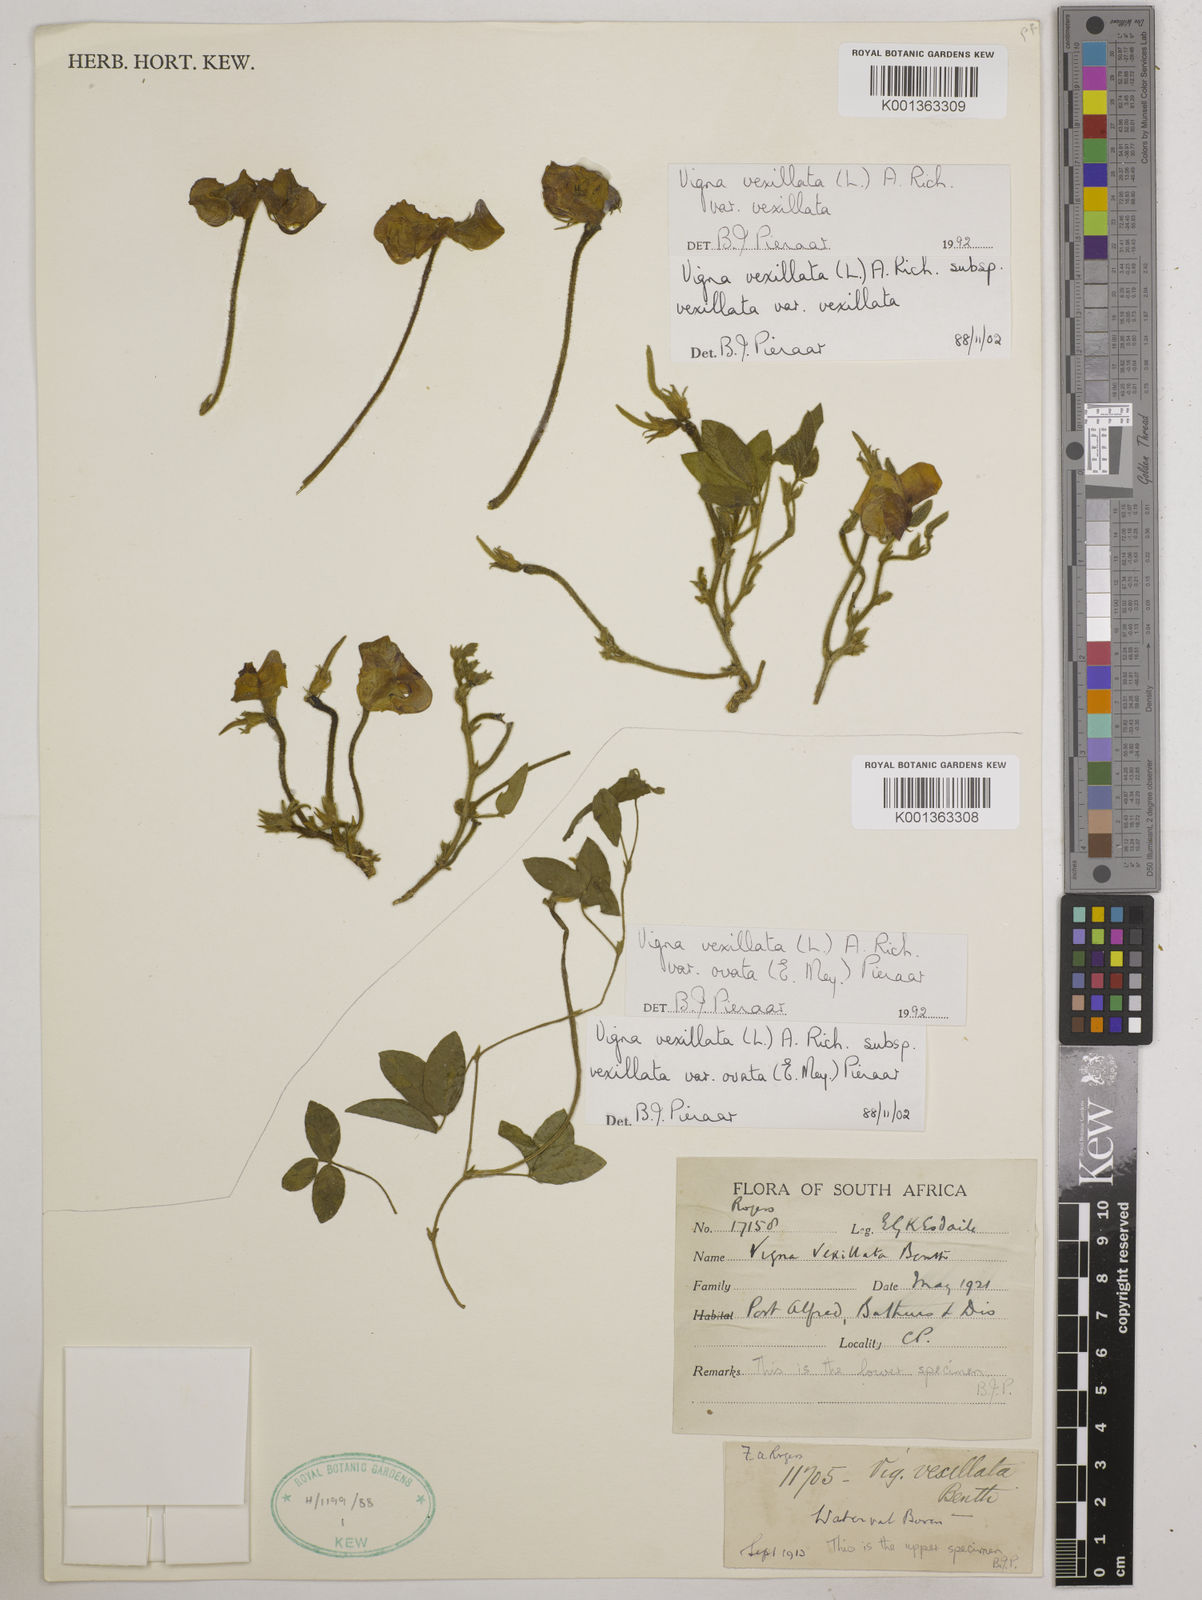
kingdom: Plantae
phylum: Tracheophyta
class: Magnoliopsida
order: Fabales
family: Fabaceae
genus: Vigna
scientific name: Vigna
